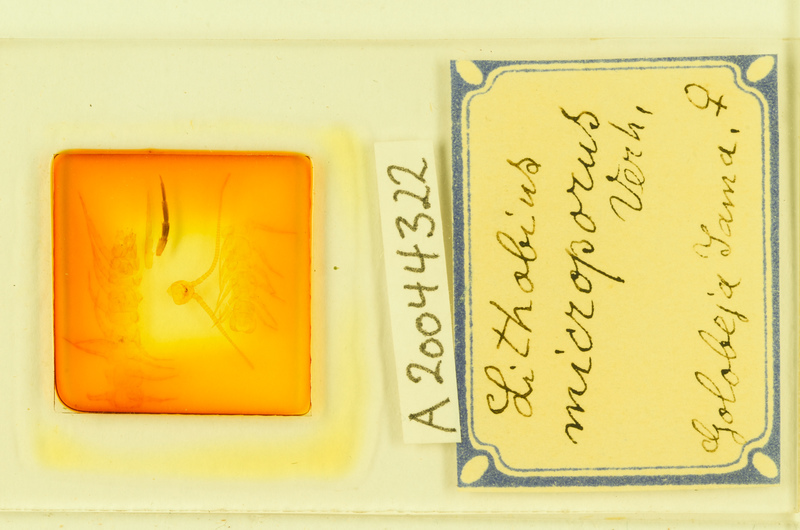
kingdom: Animalia
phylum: Arthropoda
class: Chilopoda
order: Lithobiomorpha
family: Lithobiidae
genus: Lithobius
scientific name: Lithobius lucifugus
